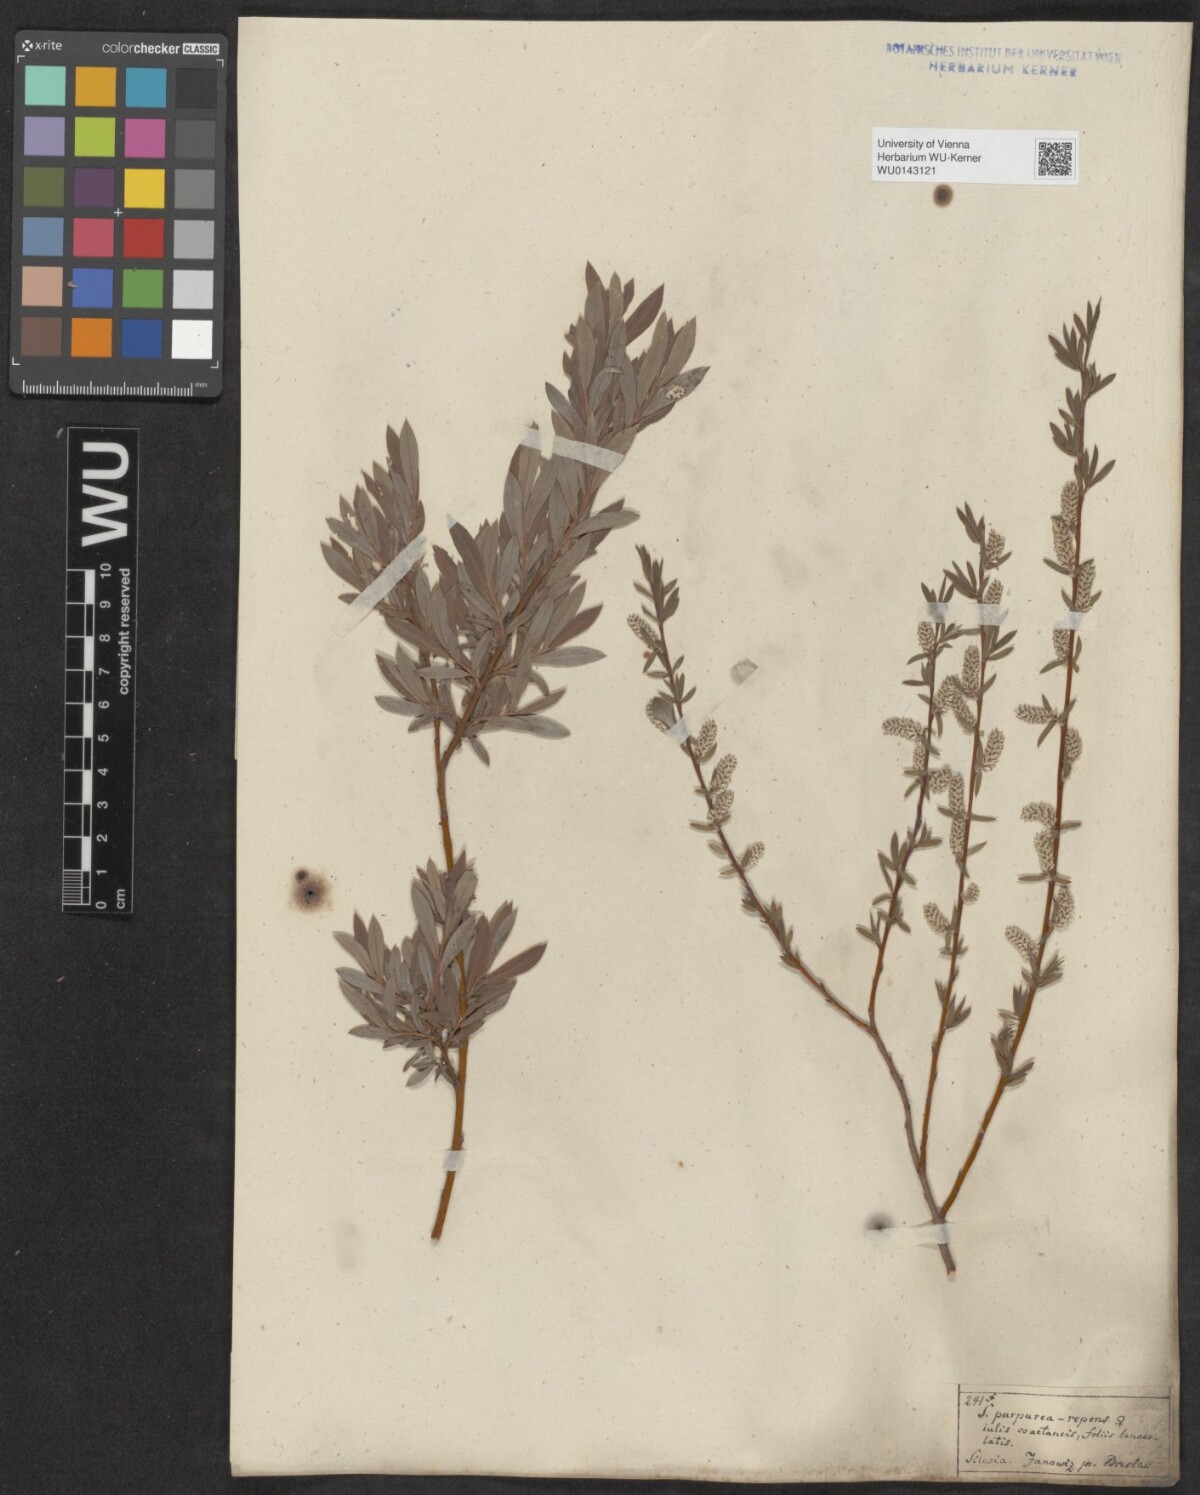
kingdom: Plantae
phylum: Tracheophyta
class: Magnoliopsida
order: Malpighiales
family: Salicaceae
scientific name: Salicaceae
